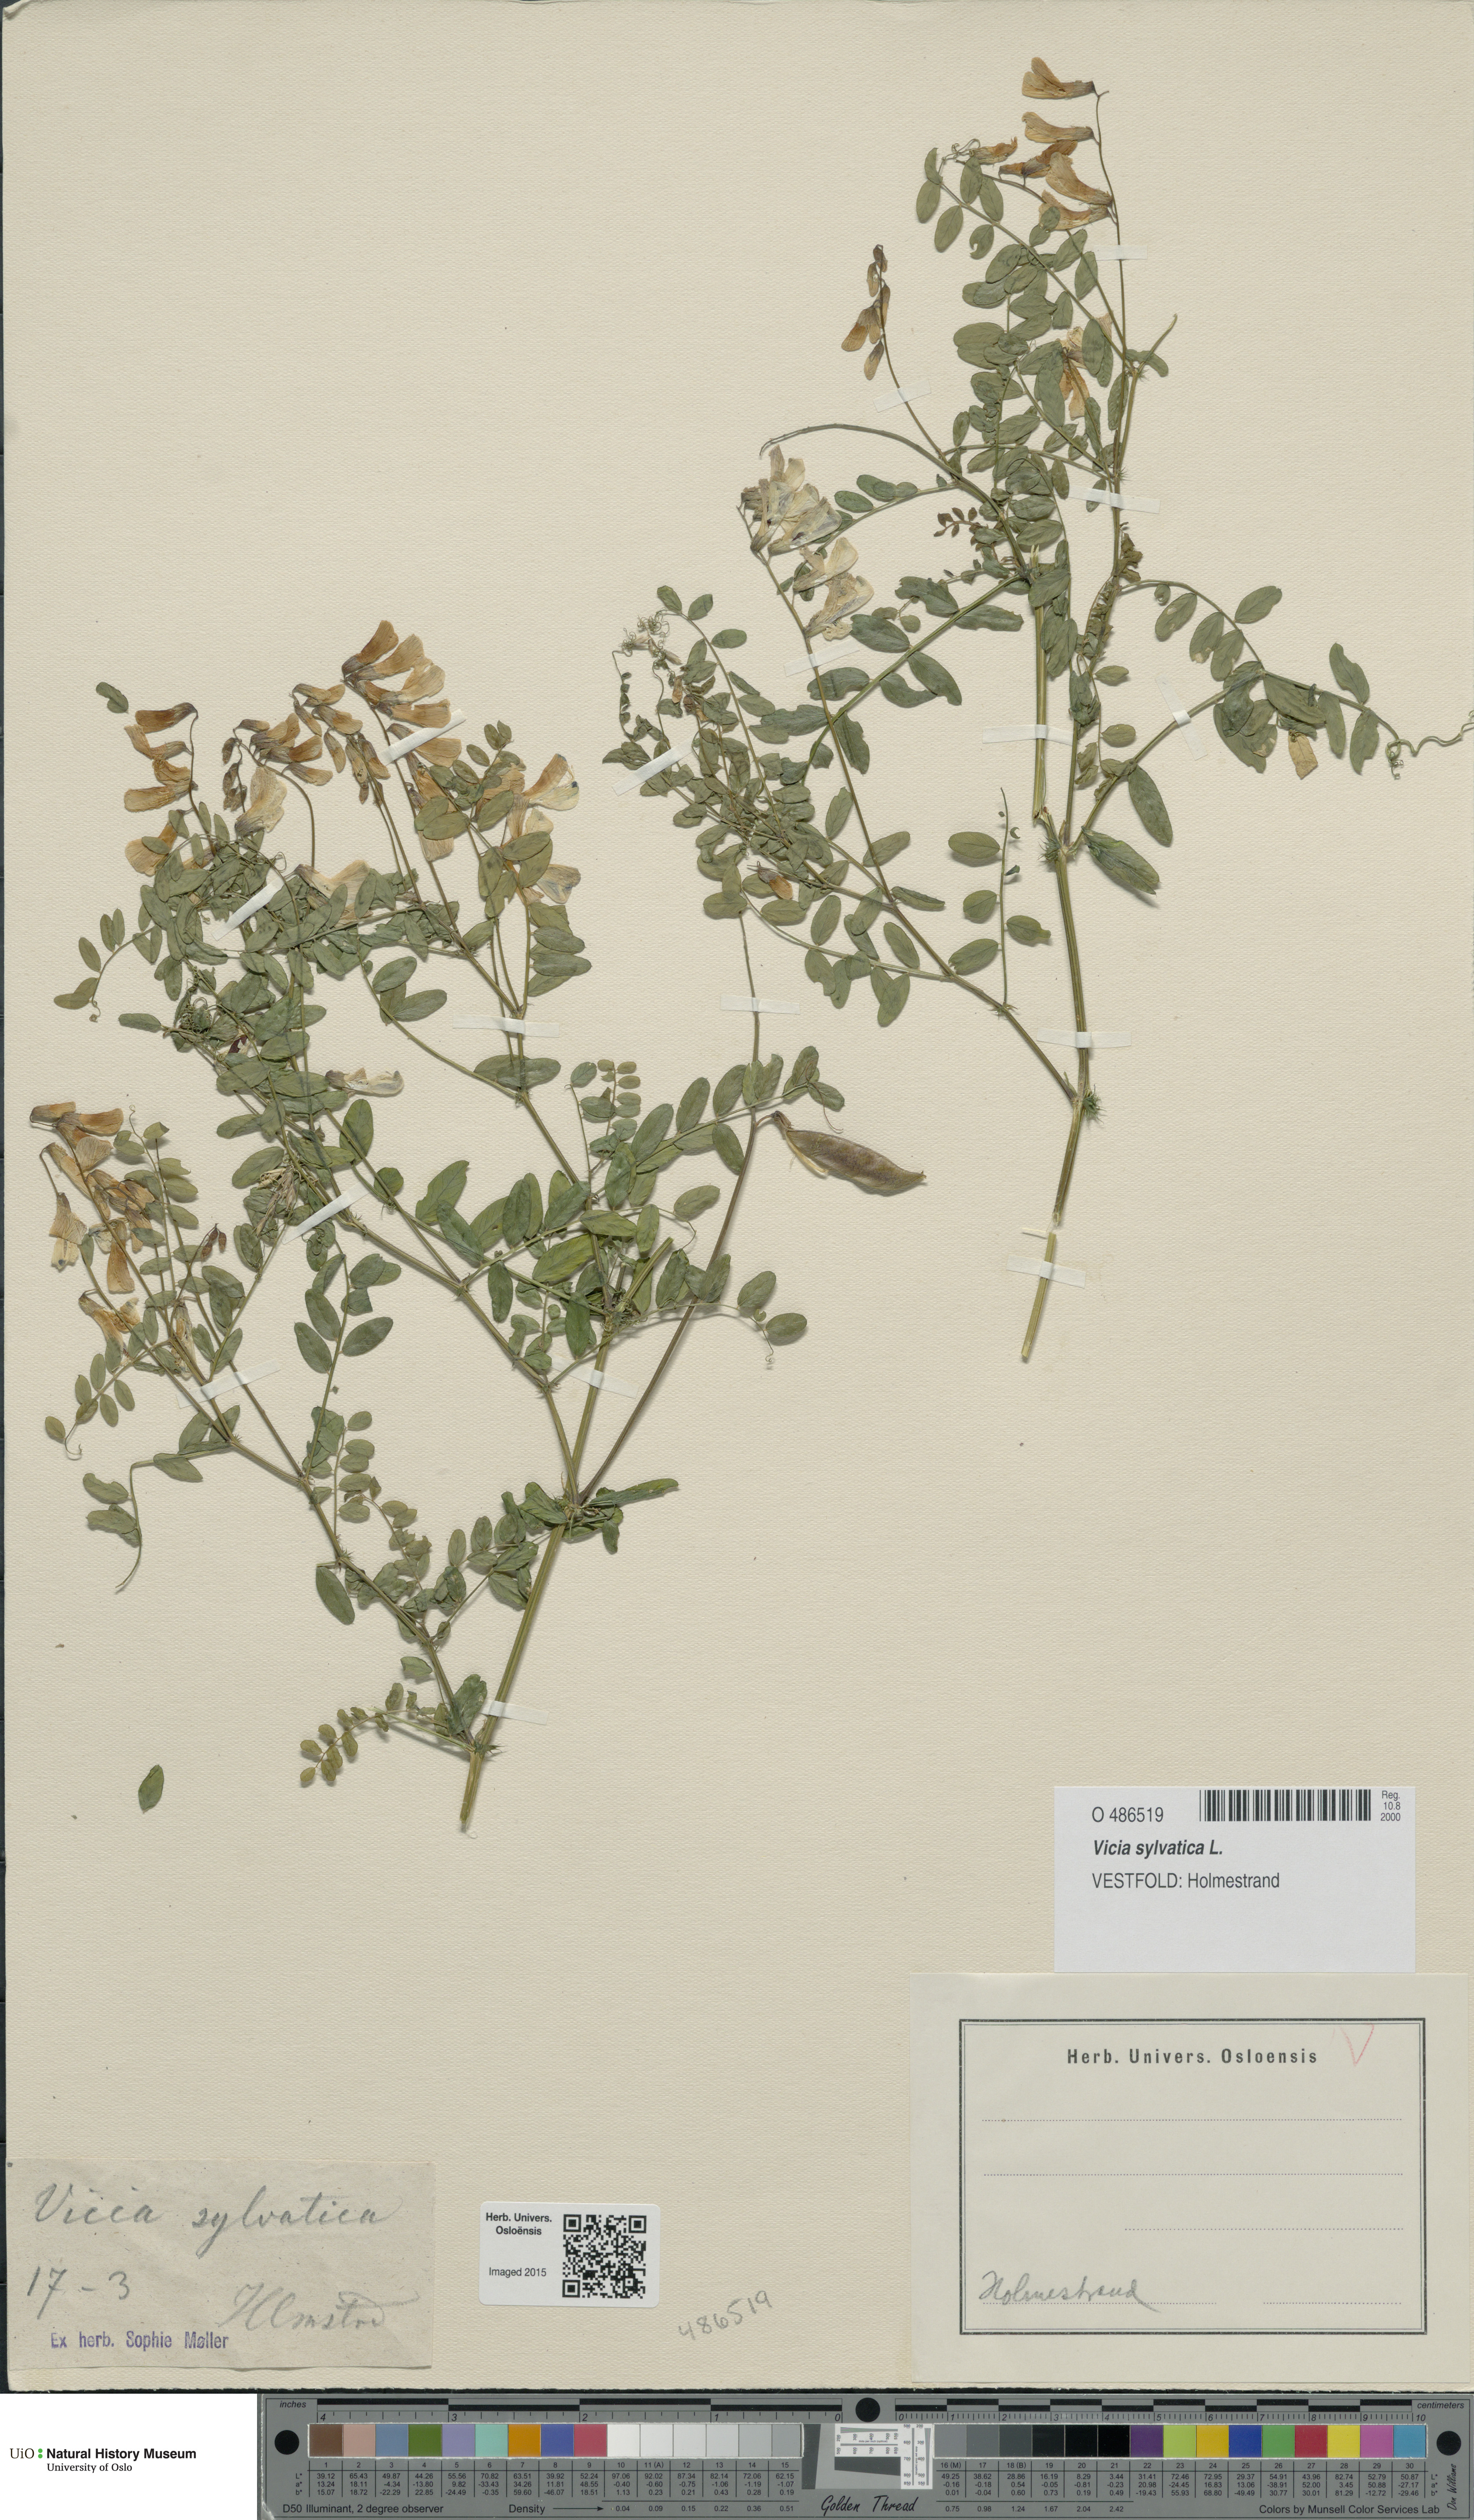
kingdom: Plantae
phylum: Tracheophyta
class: Magnoliopsida
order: Fabales
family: Fabaceae
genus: Vicia
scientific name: Vicia sylvatica
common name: Wood vetch
